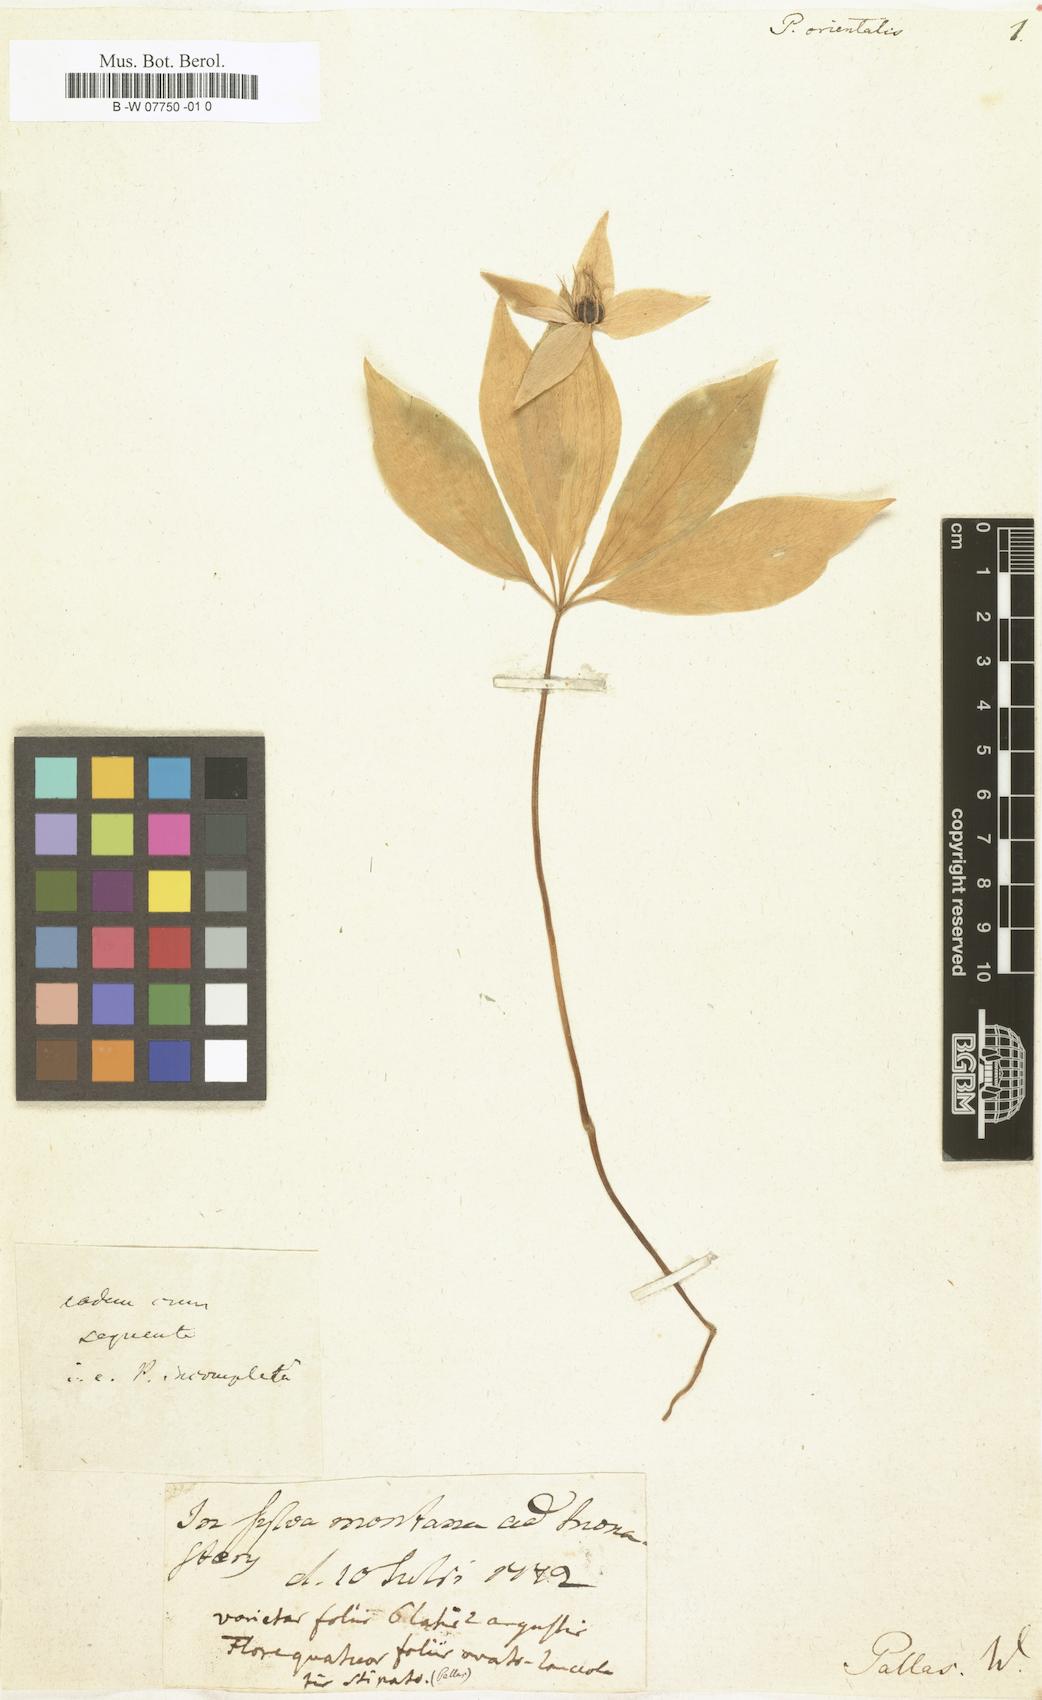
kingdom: Plantae
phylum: Tracheophyta
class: Liliopsida
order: Liliales
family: Melanthiaceae
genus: Paris
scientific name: Paris
